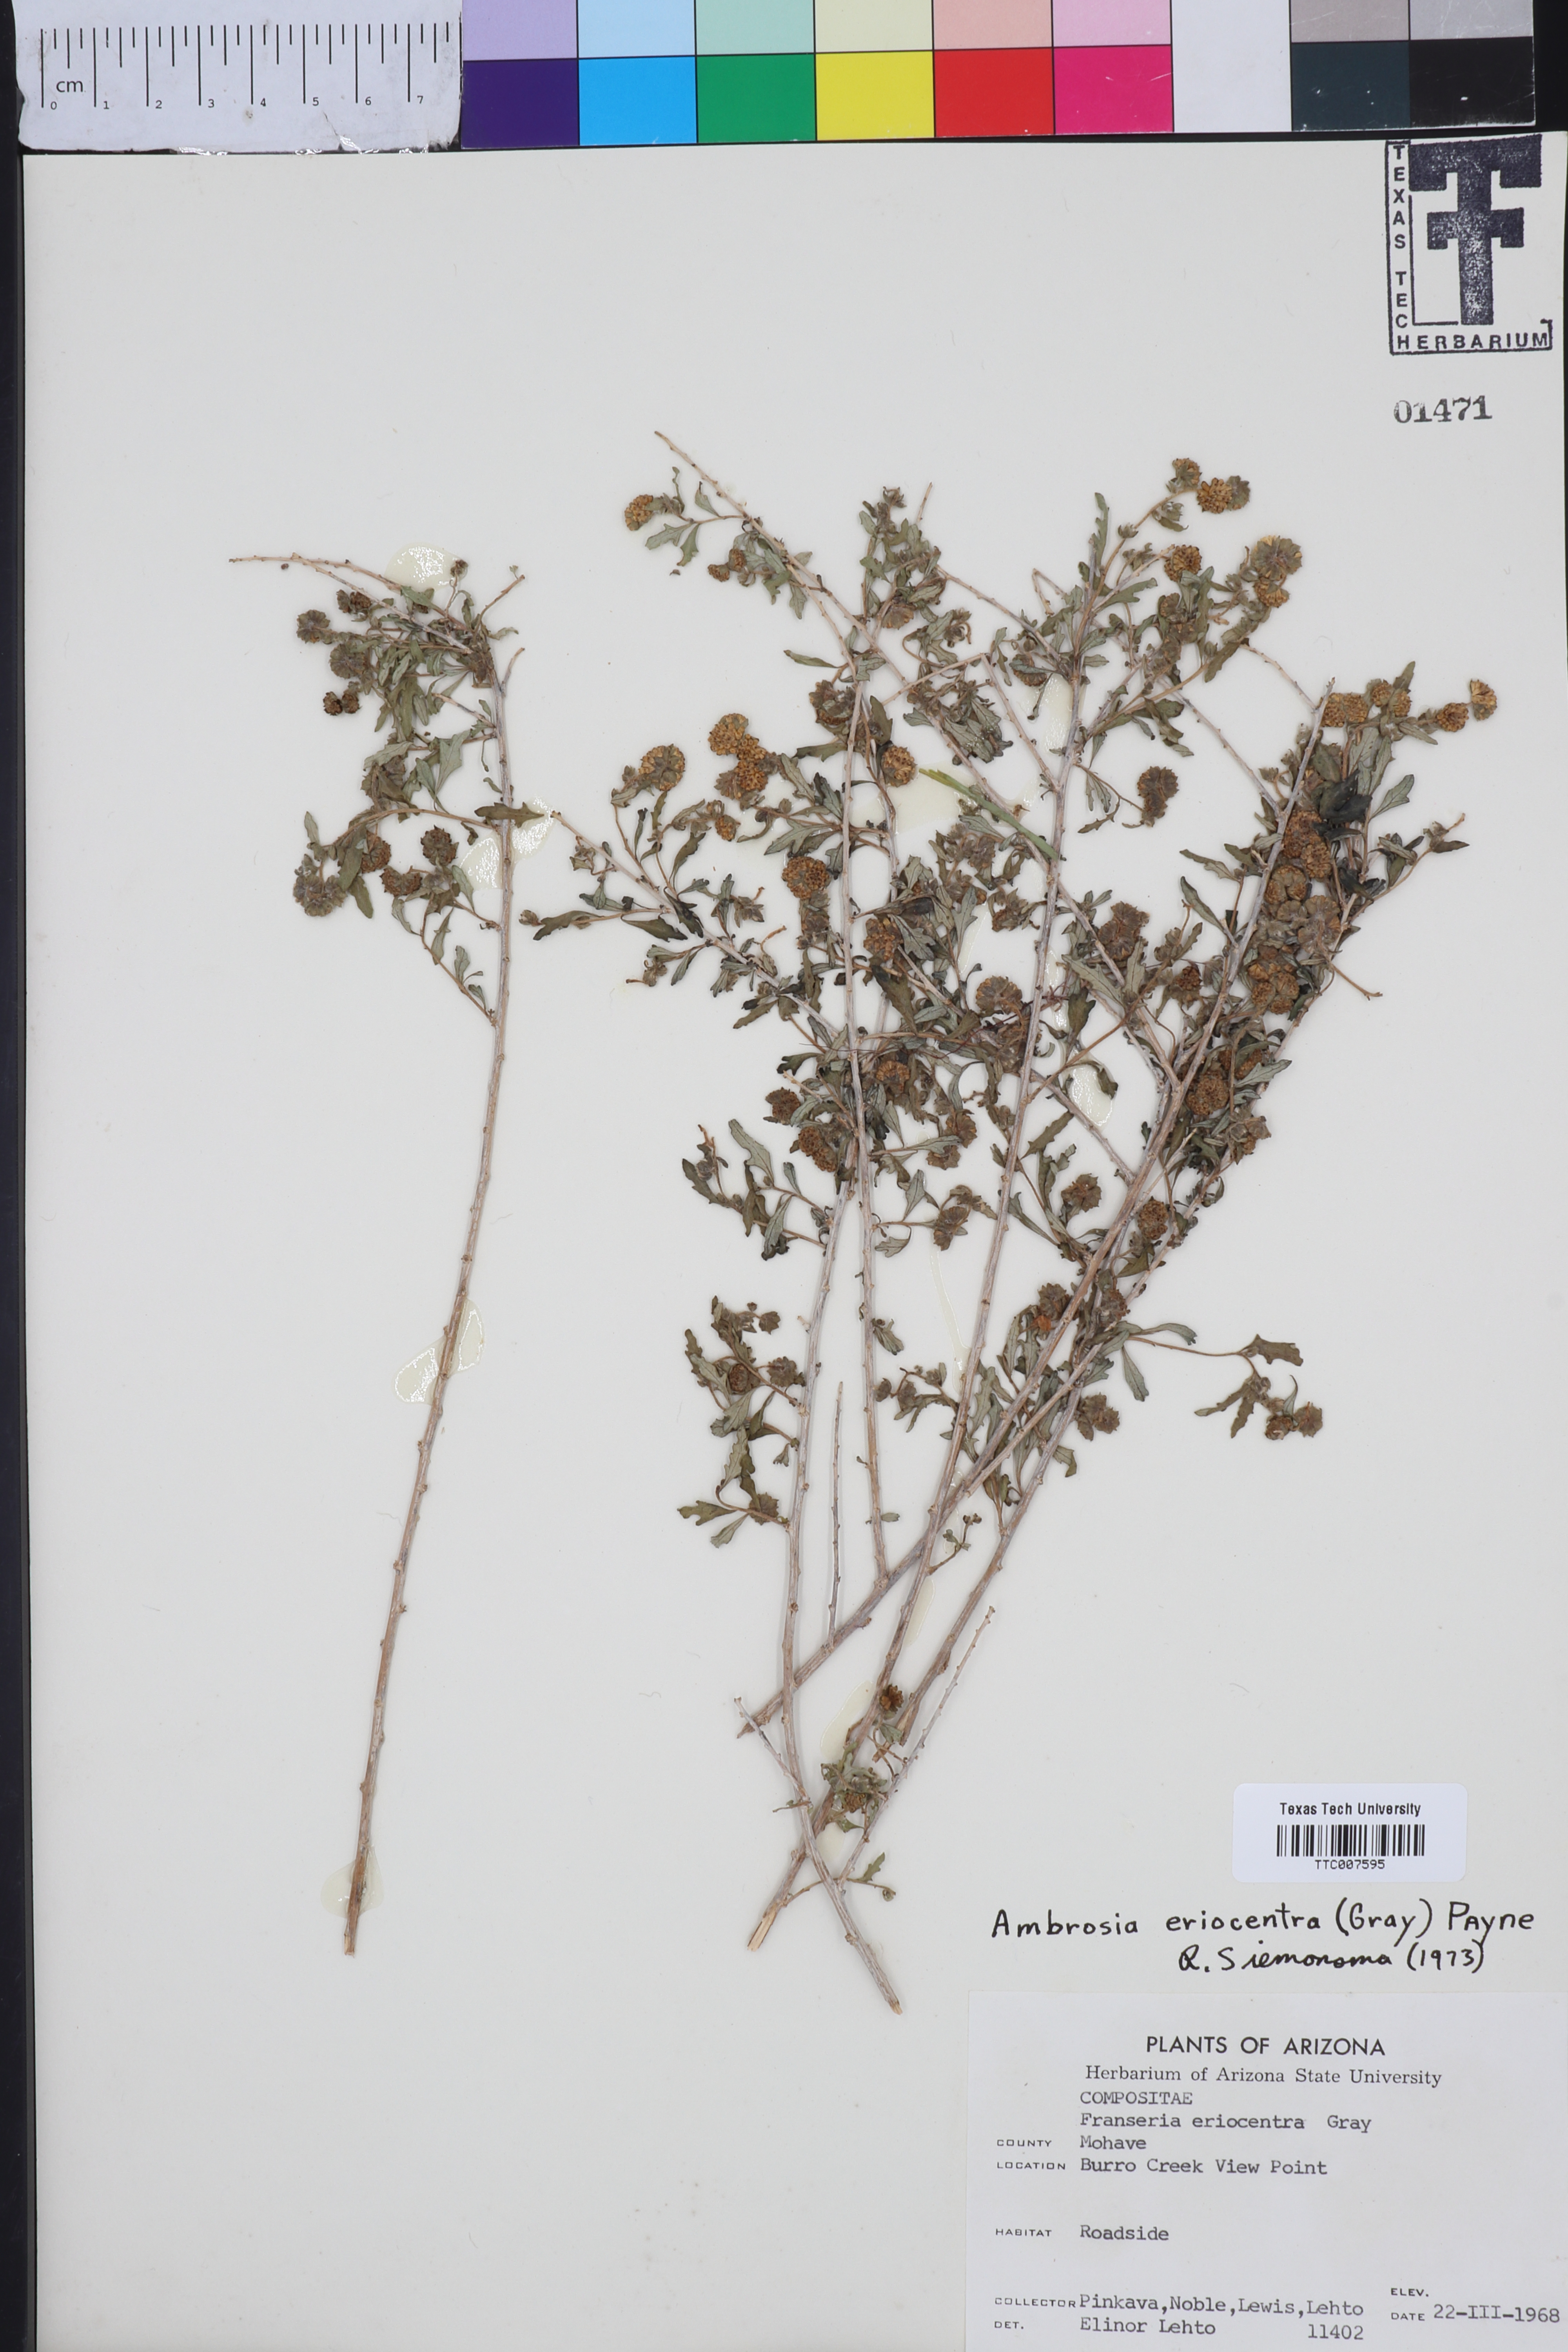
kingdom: Plantae
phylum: Tracheophyta
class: Magnoliopsida
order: Asterales
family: Asteraceae
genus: Ambrosia
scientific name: Ambrosia eriocentra
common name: Woolly bur-sage
